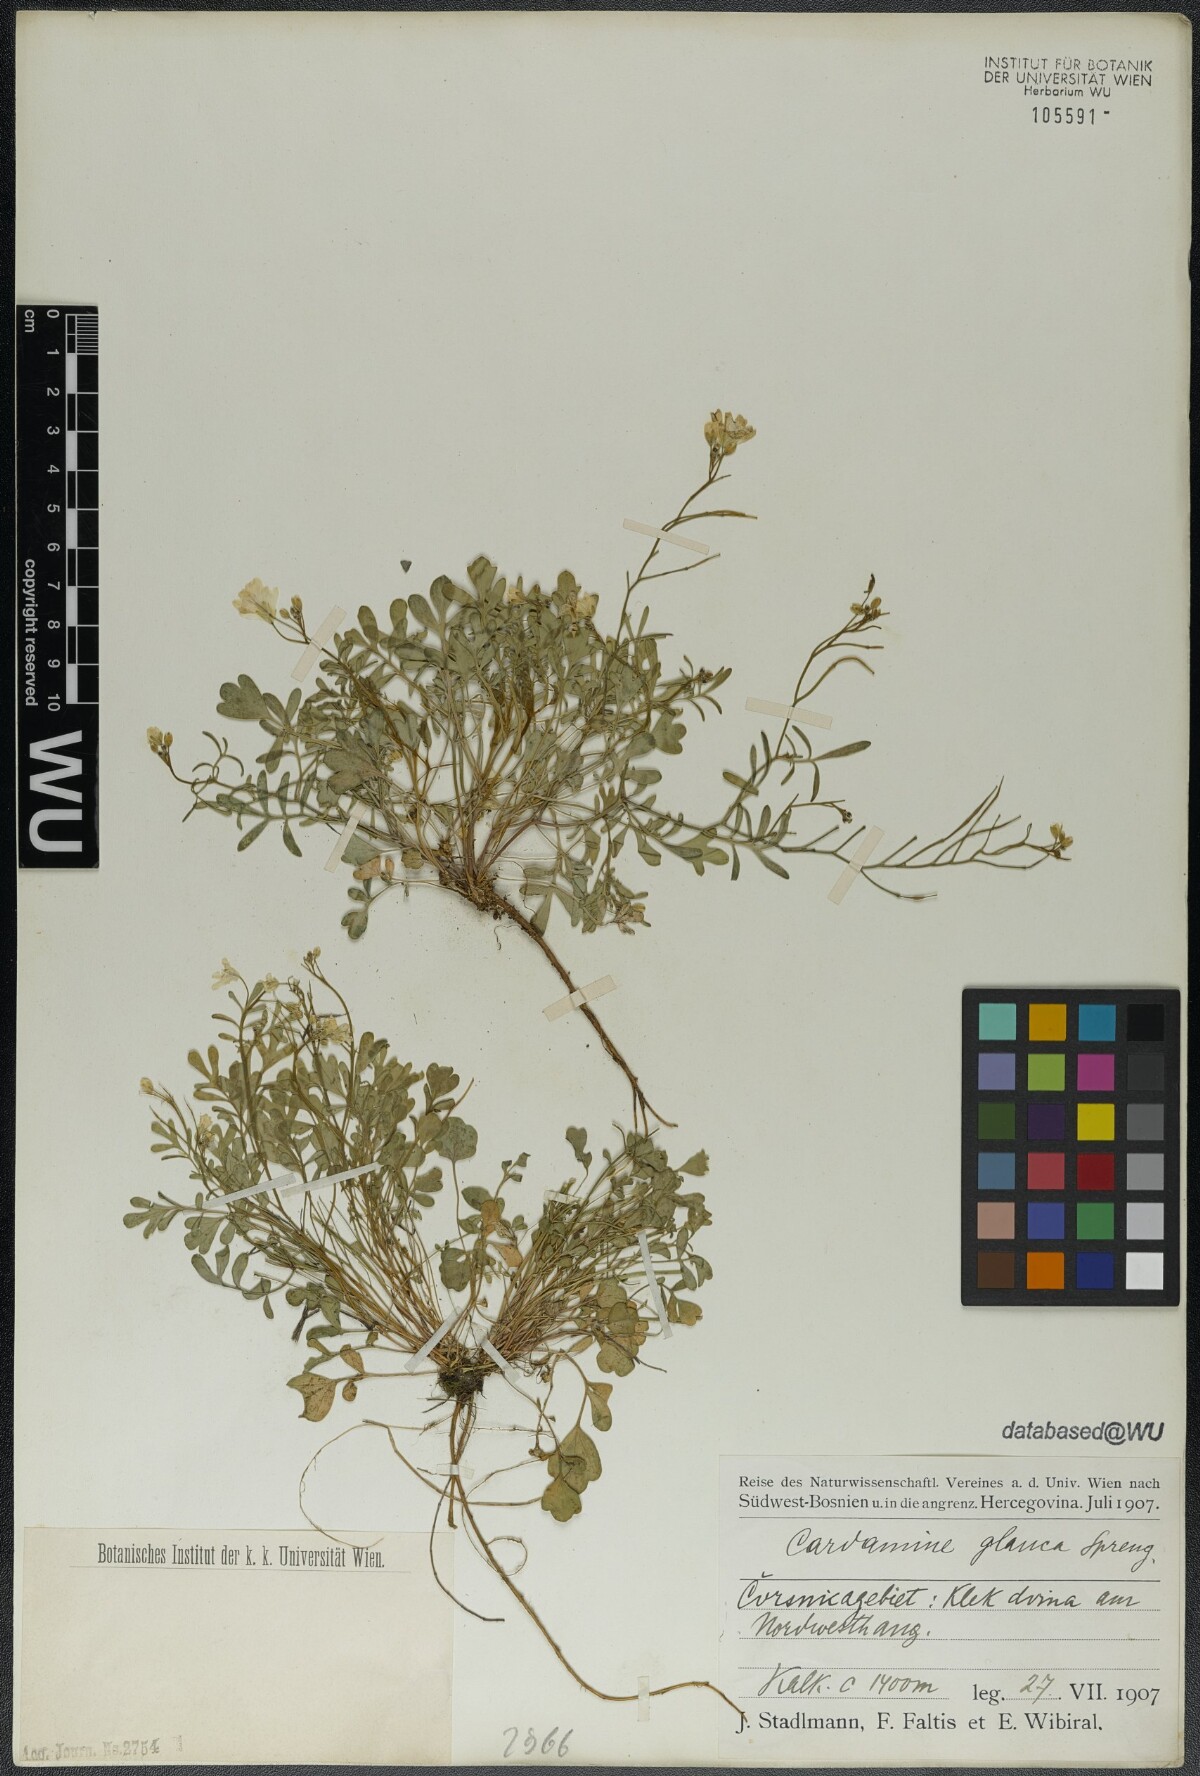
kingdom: Plantae
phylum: Tracheophyta
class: Magnoliopsida
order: Brassicales
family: Brassicaceae
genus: Cardamine
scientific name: Cardamine glauca
